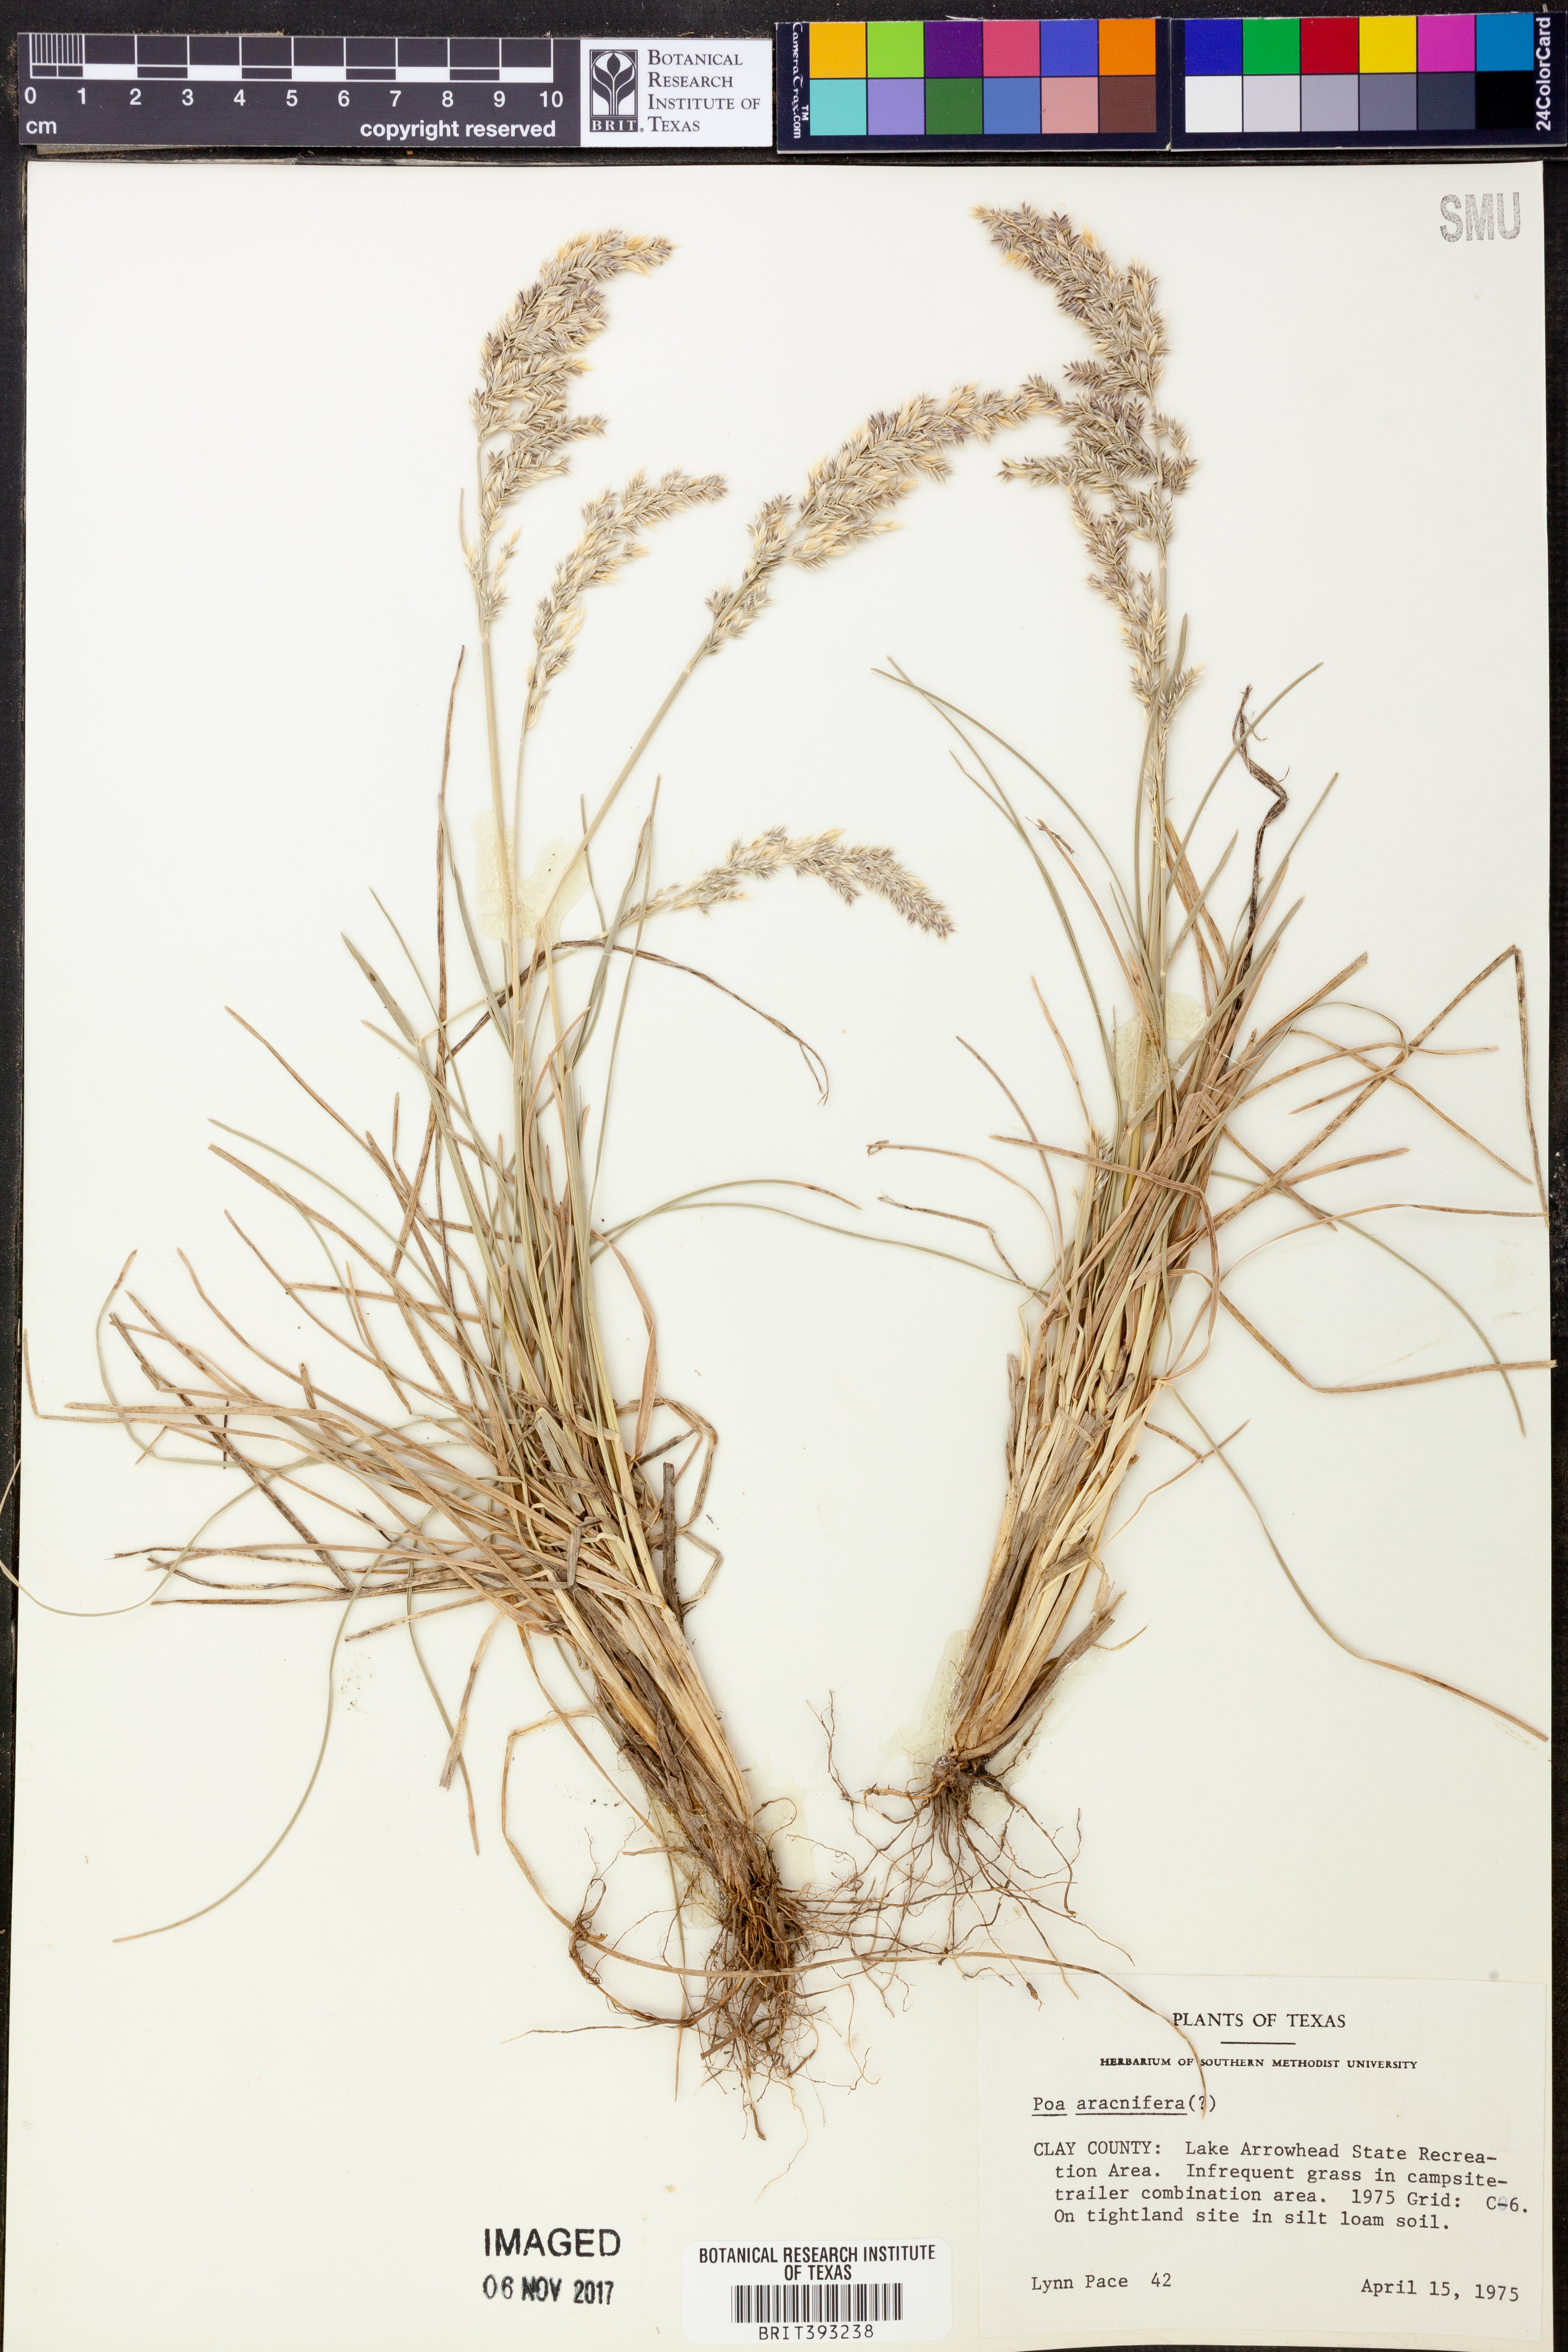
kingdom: Plantae
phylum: Tracheophyta
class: Liliopsida
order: Poales
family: Poaceae
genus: Poa
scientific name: Poa arachnifera
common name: Texas bluegrass
